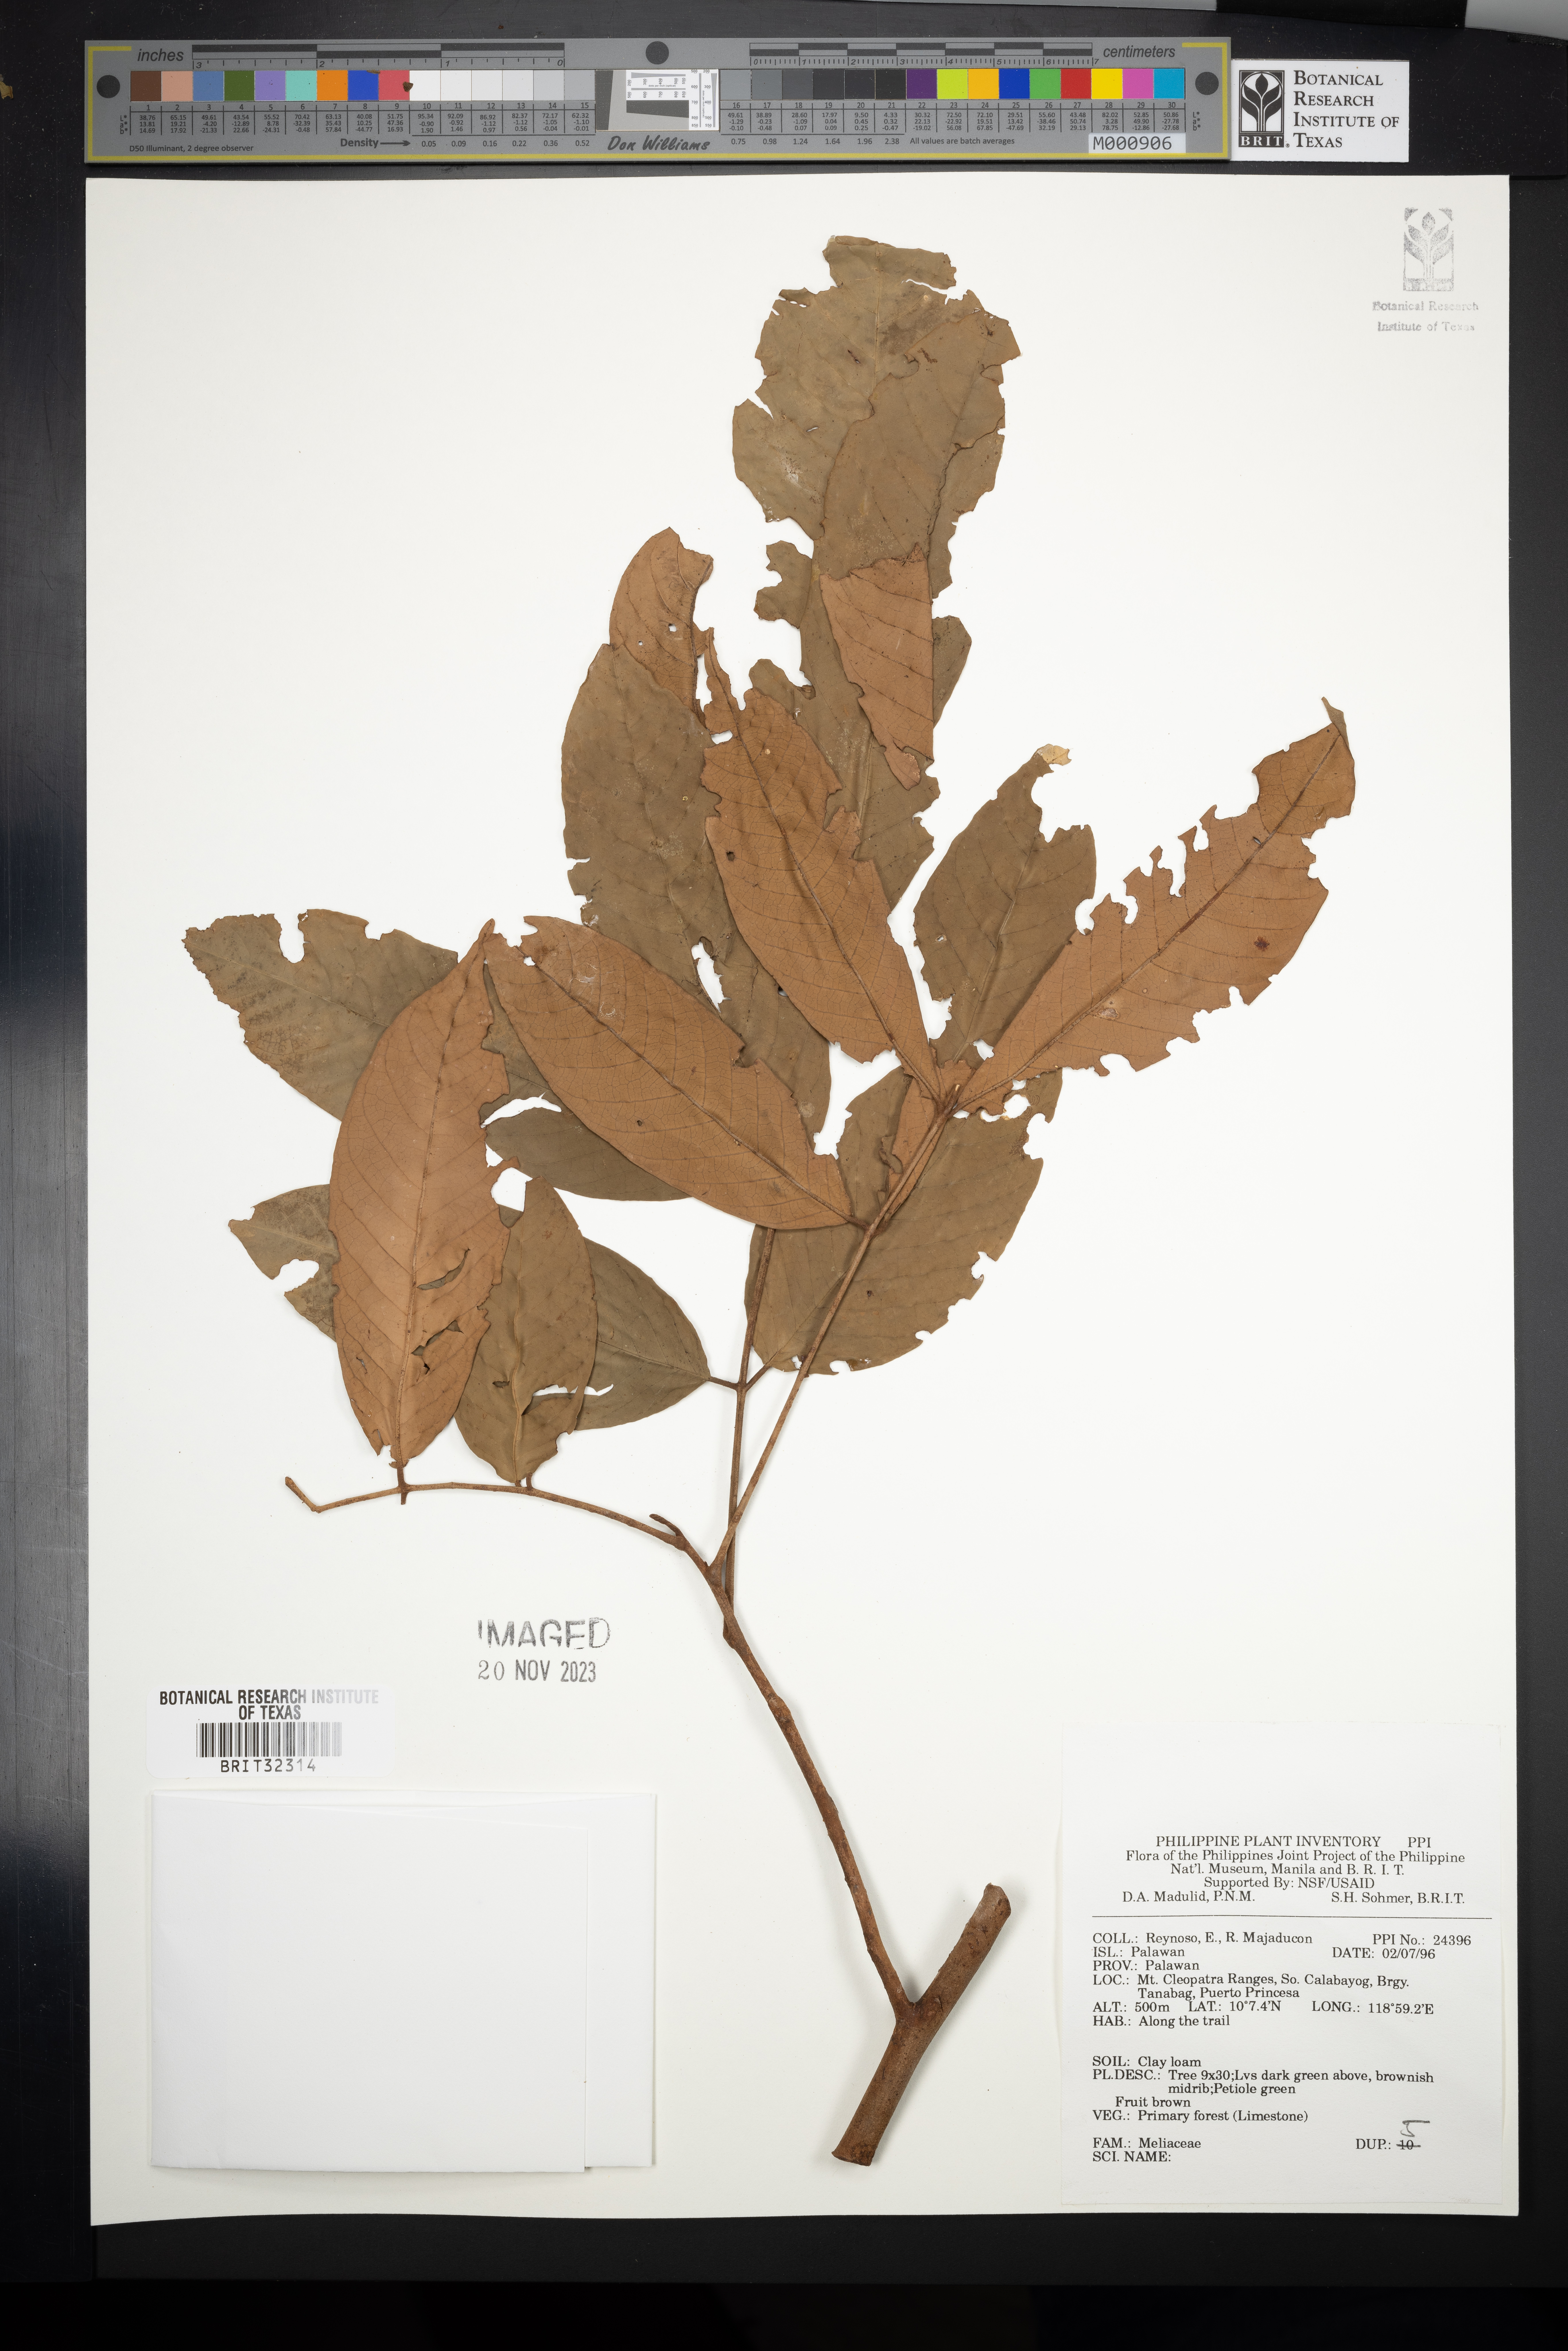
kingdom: Plantae
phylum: Tracheophyta
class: Magnoliopsida
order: Sapindales
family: Meliaceae
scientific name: Meliaceae
